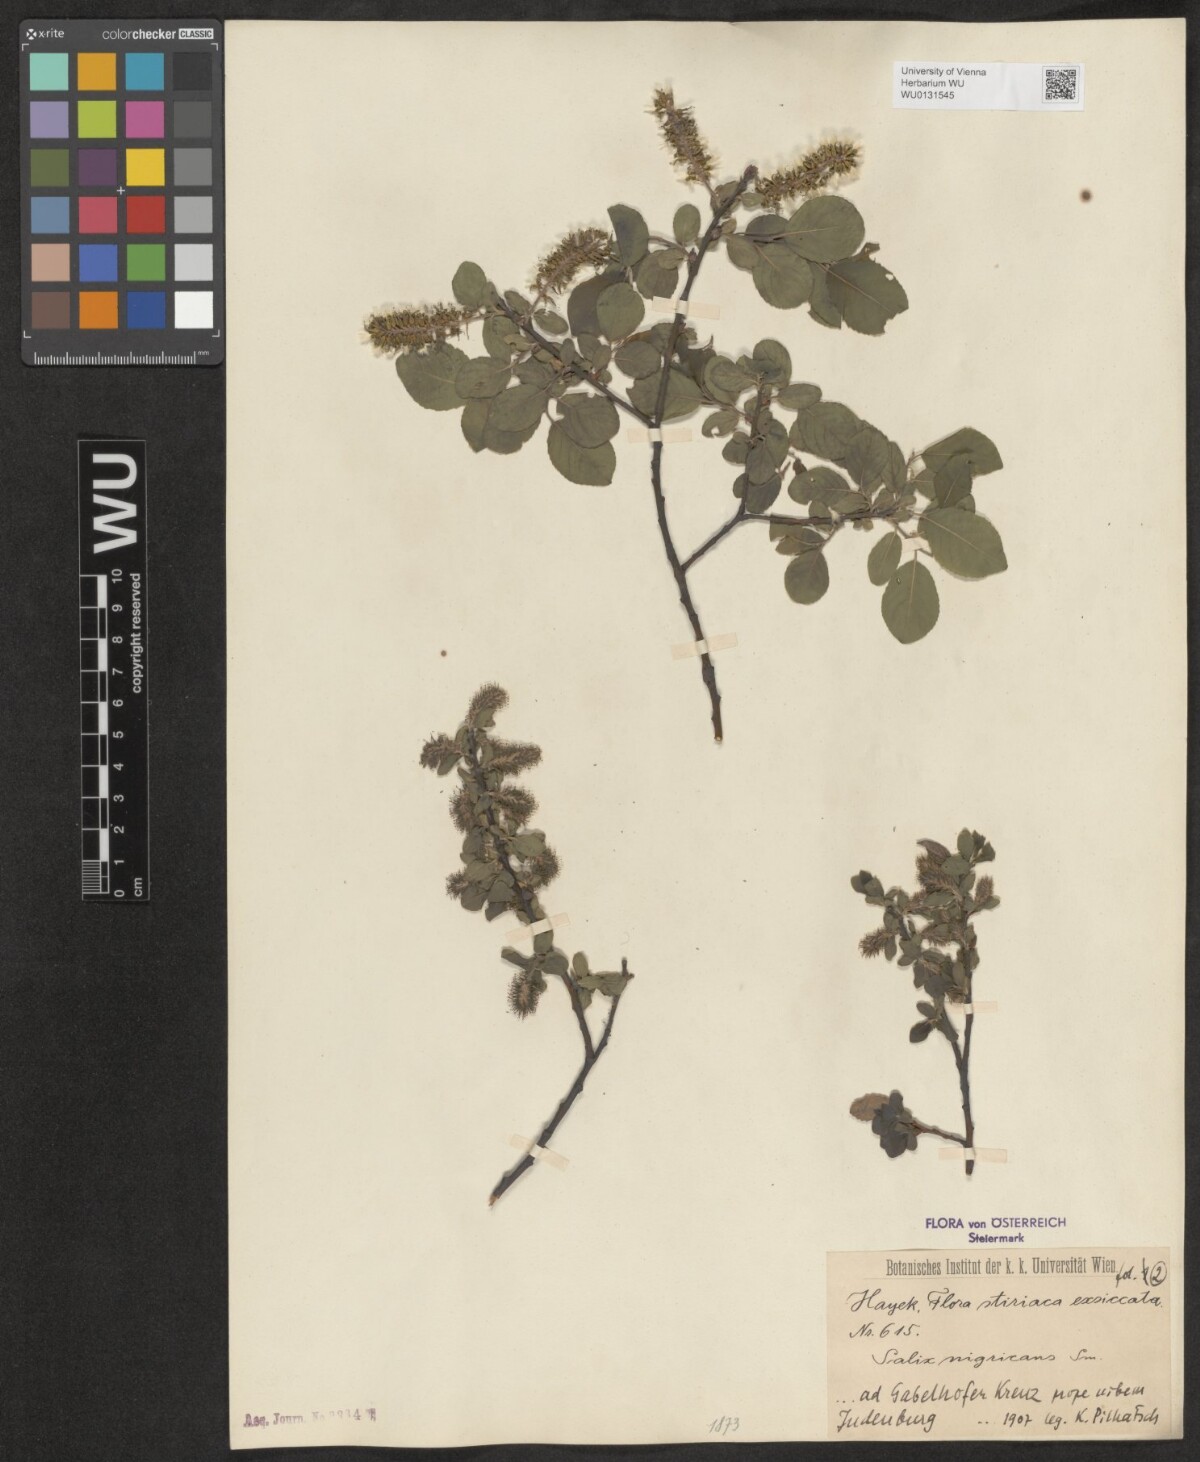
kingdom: Plantae
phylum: Tracheophyta
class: Magnoliopsida
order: Malpighiales
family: Salicaceae
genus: Salix
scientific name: Salix myrsinifolia
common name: Dark-leaved willow
